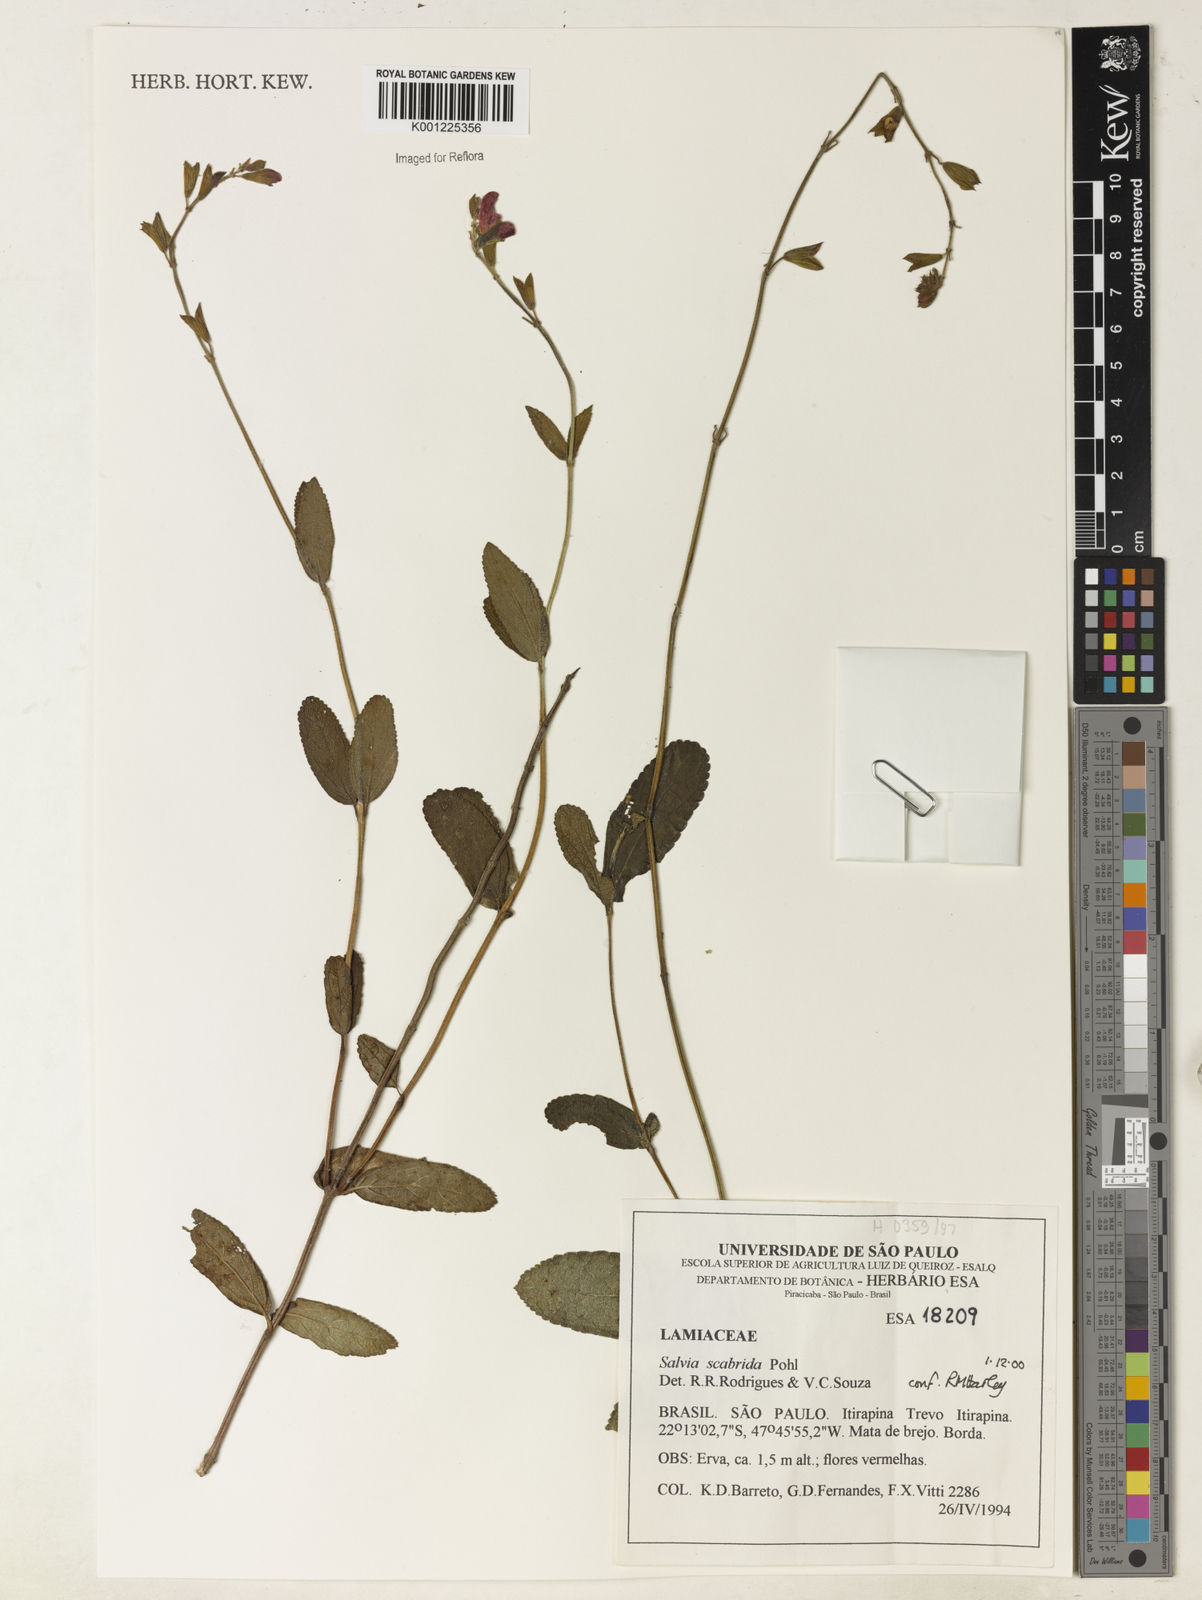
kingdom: Plantae
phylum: Tracheophyta
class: Magnoliopsida
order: Lamiales
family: Lamiaceae
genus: Salvia
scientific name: Salvia scabrida
